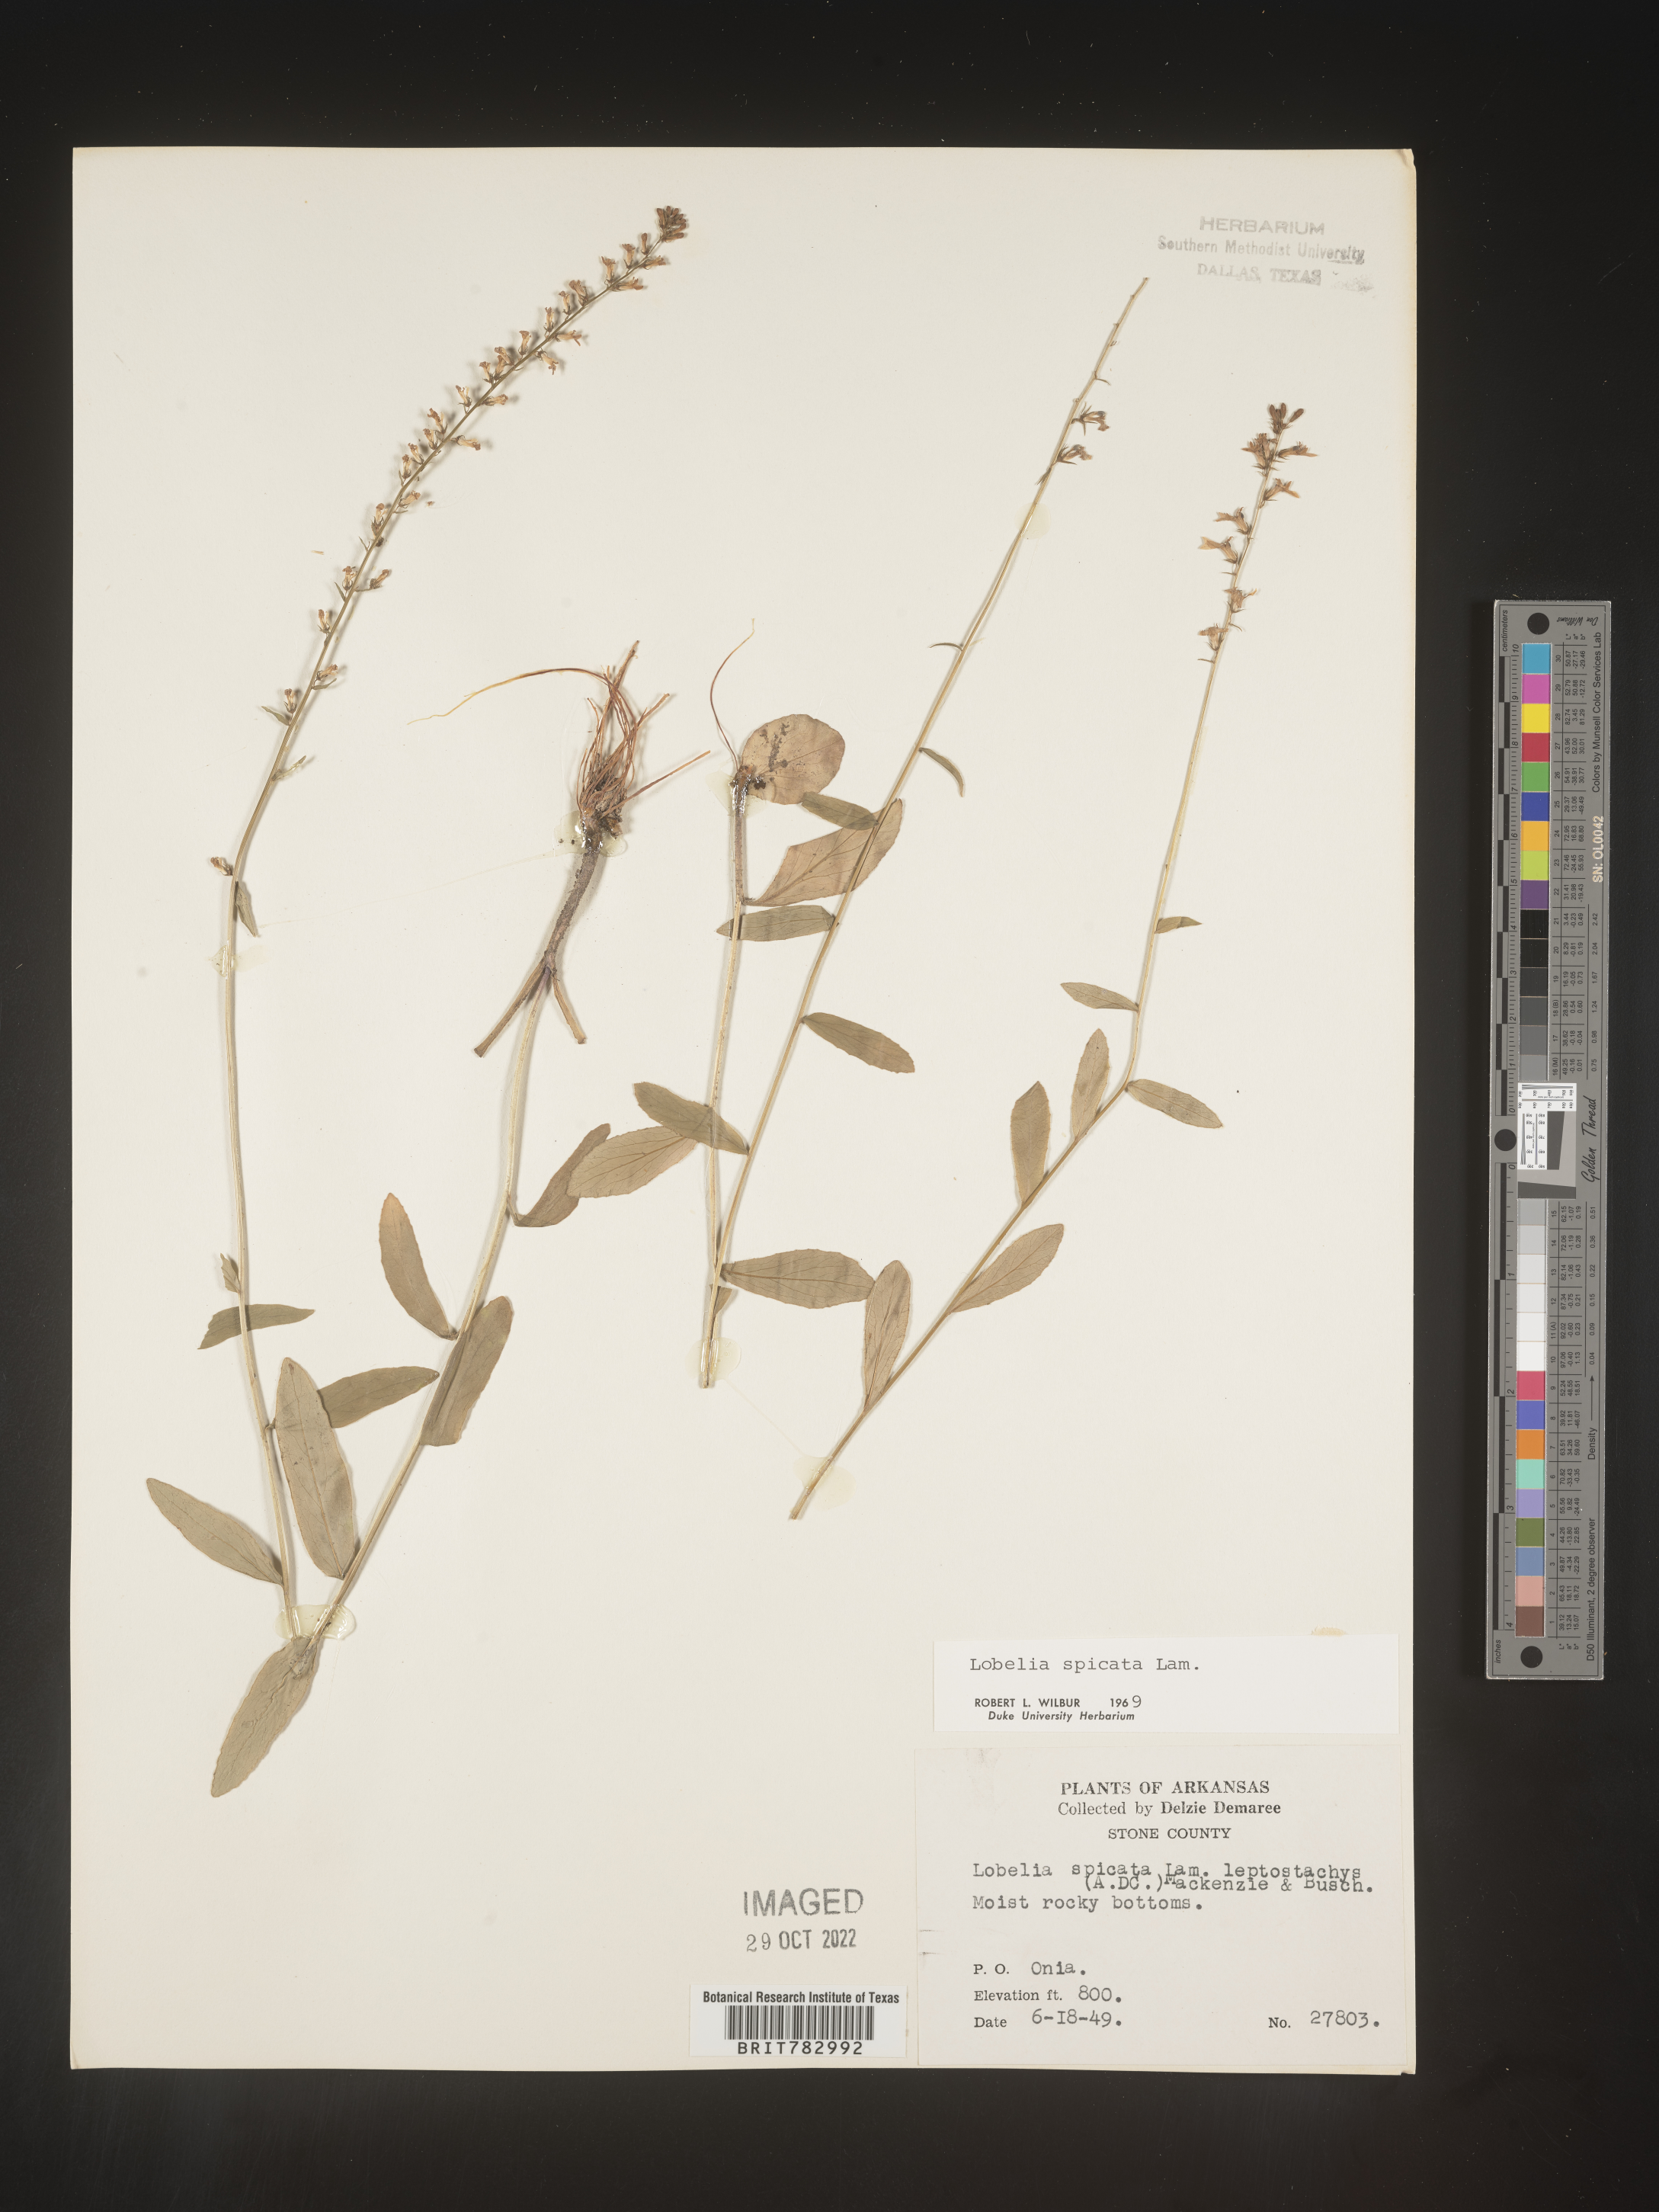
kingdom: Plantae
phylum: Tracheophyta
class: Magnoliopsida
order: Asterales
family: Campanulaceae
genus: Lobelia
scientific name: Lobelia spicata
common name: Pale-spike lobelia
